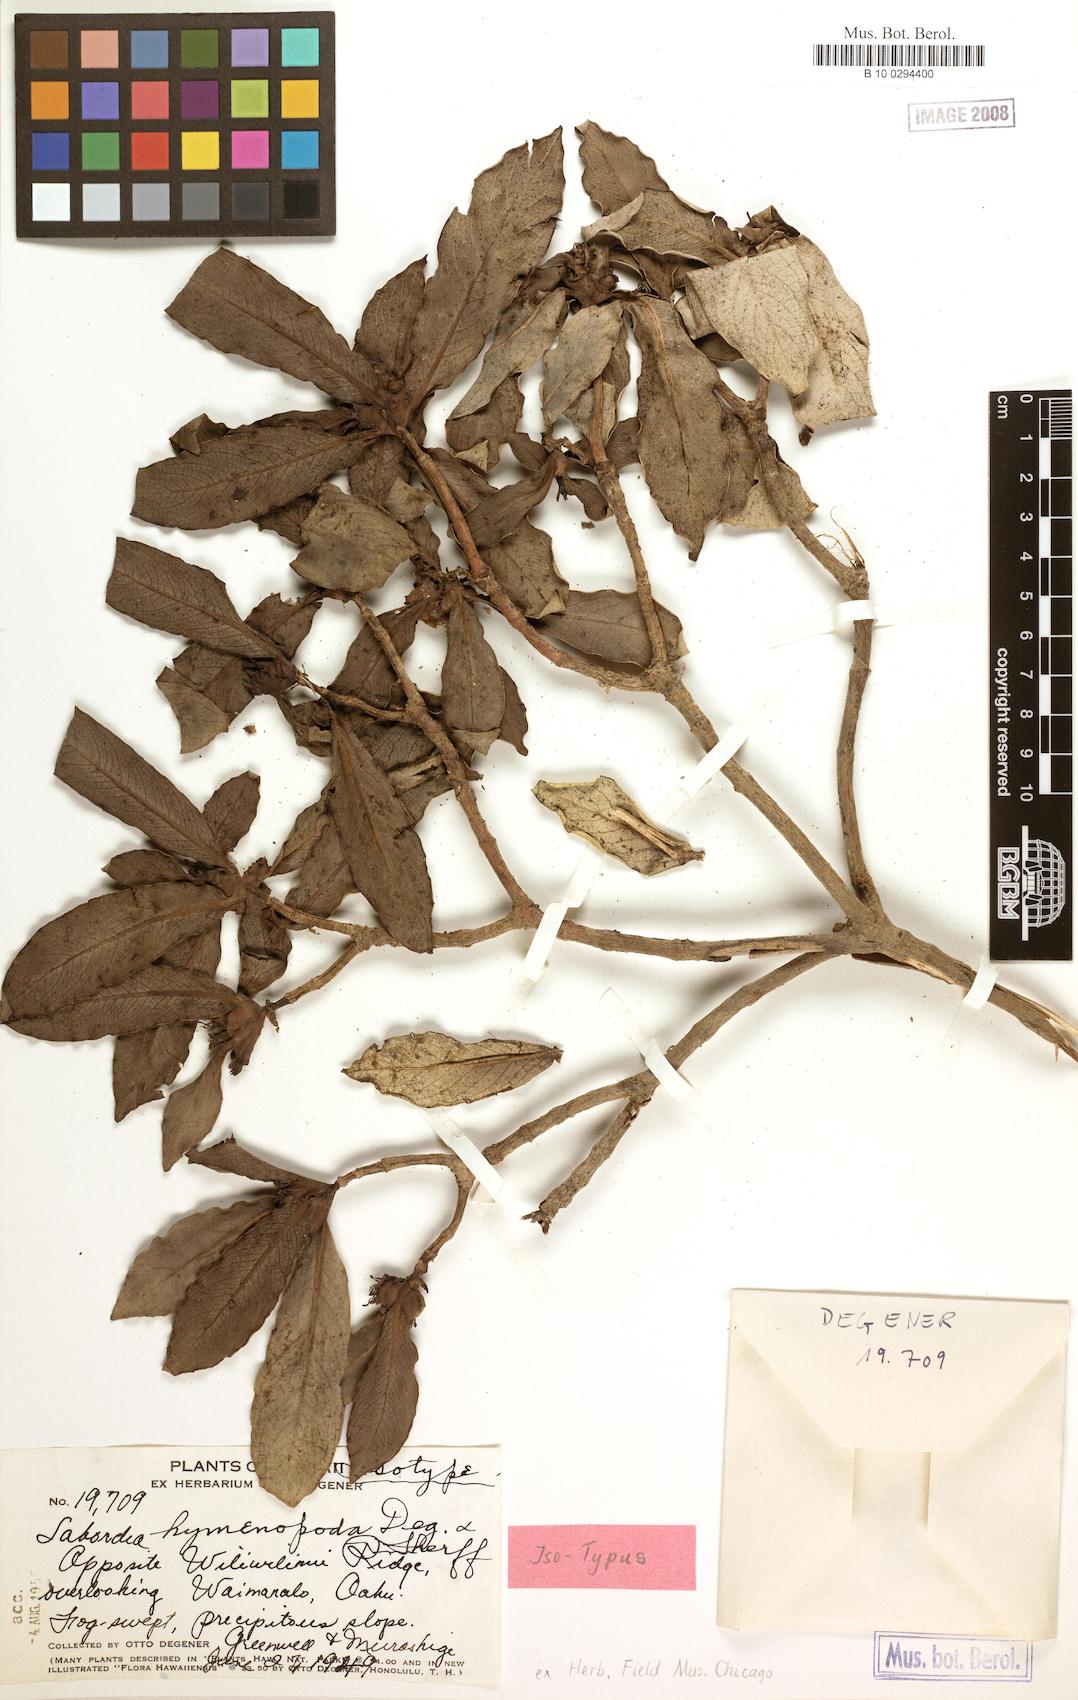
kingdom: Plantae
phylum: Tracheophyta
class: Magnoliopsida
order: Gentianales
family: Loganiaceae
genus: Geniostoma
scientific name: Geniostoma hymenopodum
